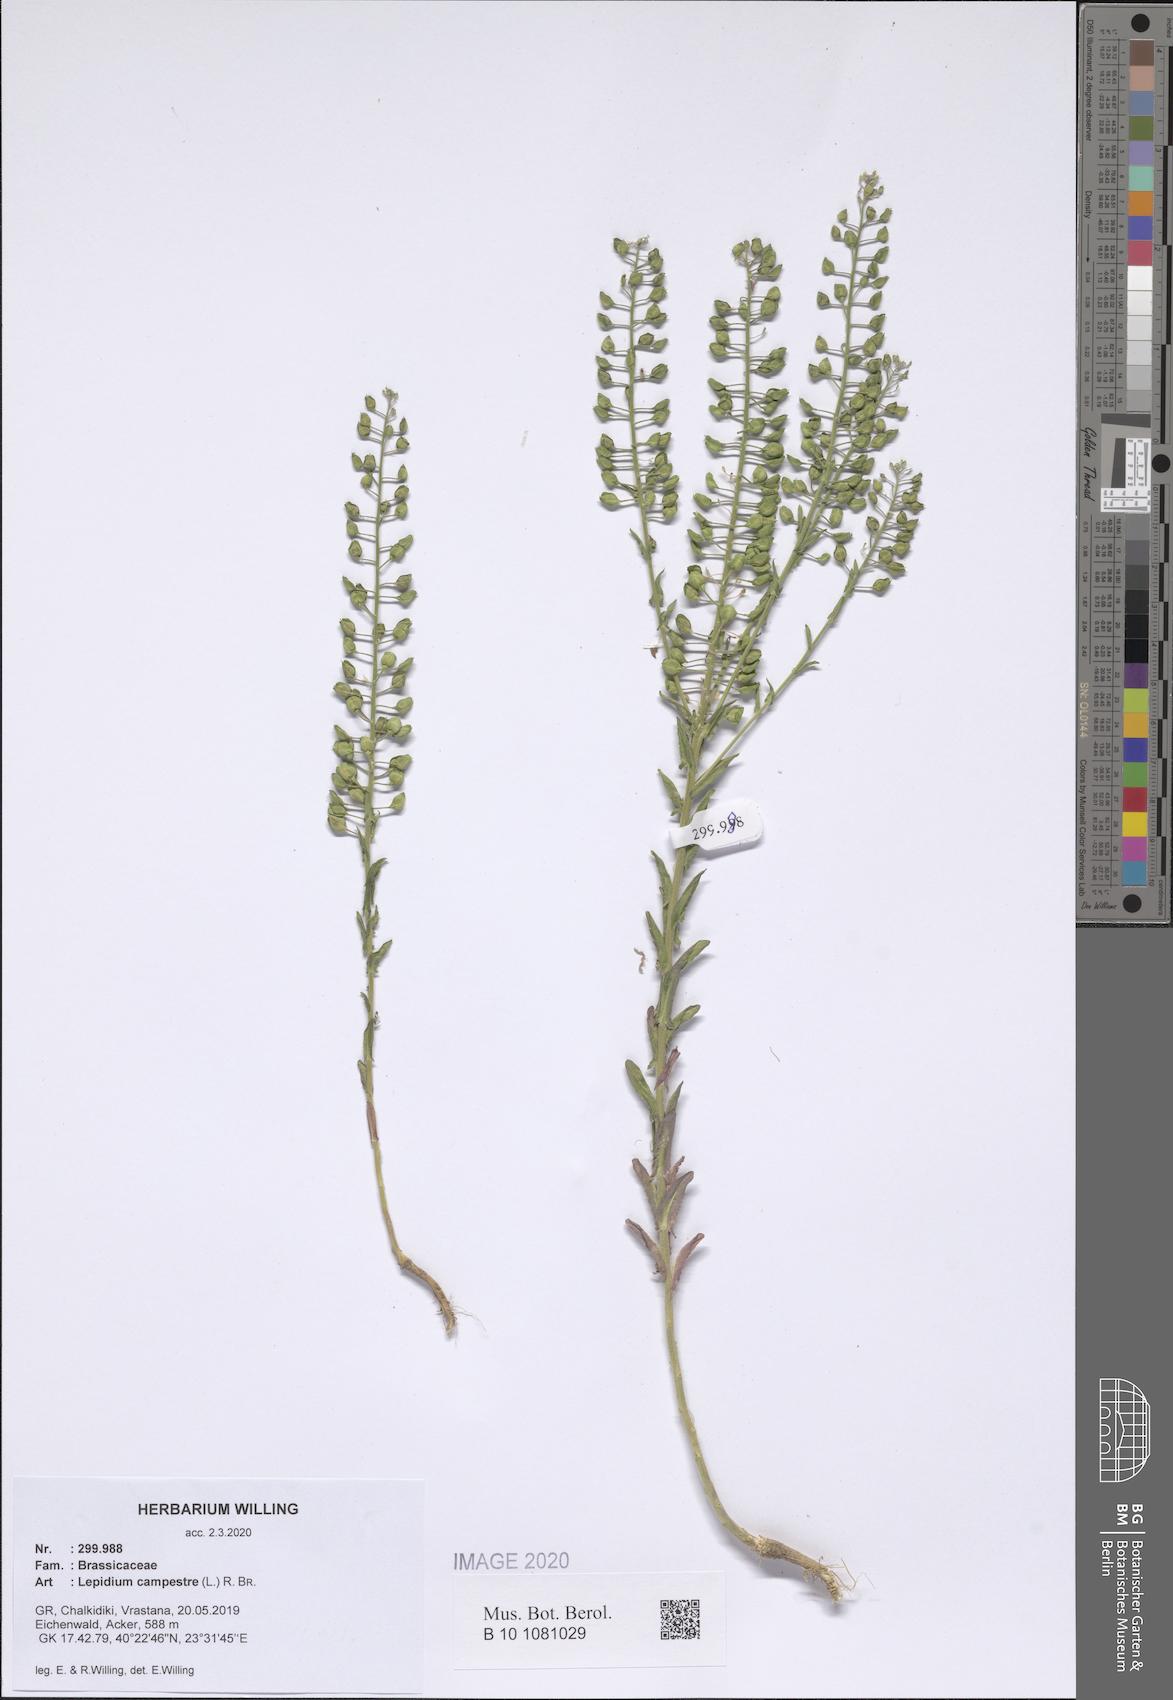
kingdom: Plantae
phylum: Tracheophyta
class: Magnoliopsida
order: Brassicales
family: Brassicaceae
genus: Lepidium
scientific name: Lepidium campestre
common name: Field pepperwort
